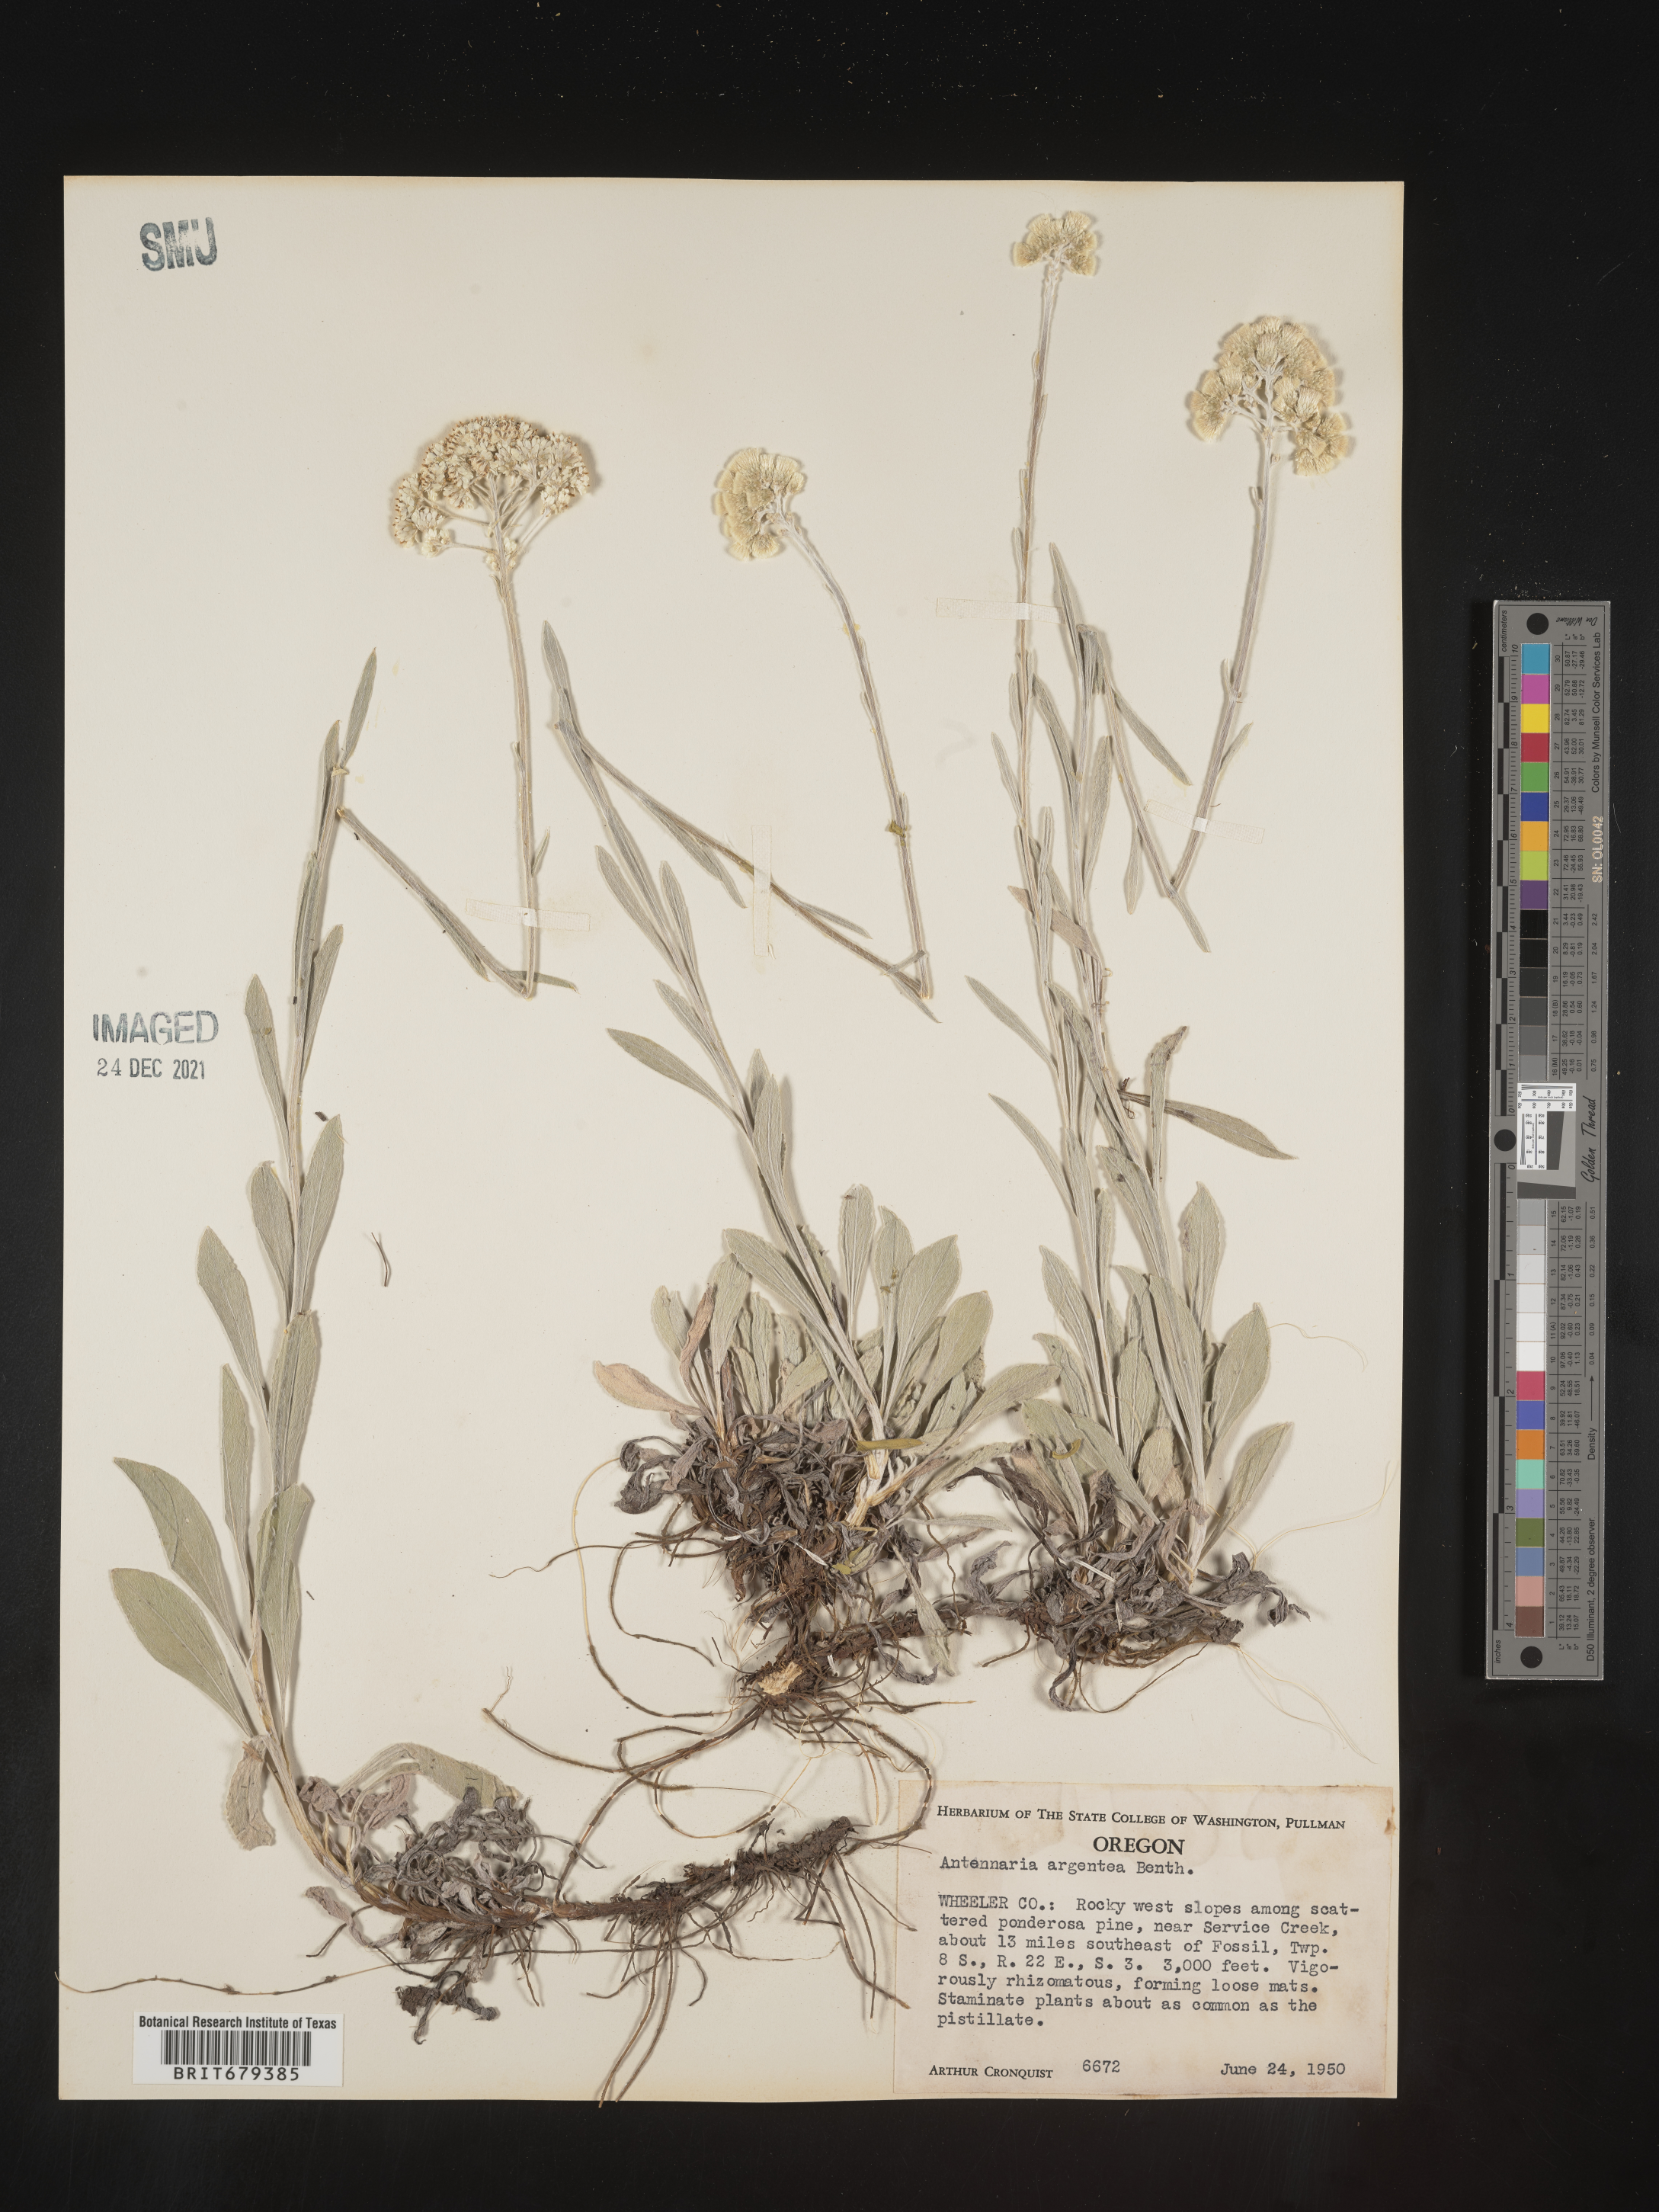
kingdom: Plantae
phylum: Tracheophyta
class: Magnoliopsida
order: Asterales
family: Asteraceae
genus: Antennaria
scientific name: Antennaria argentea
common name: Silver pussytoes
